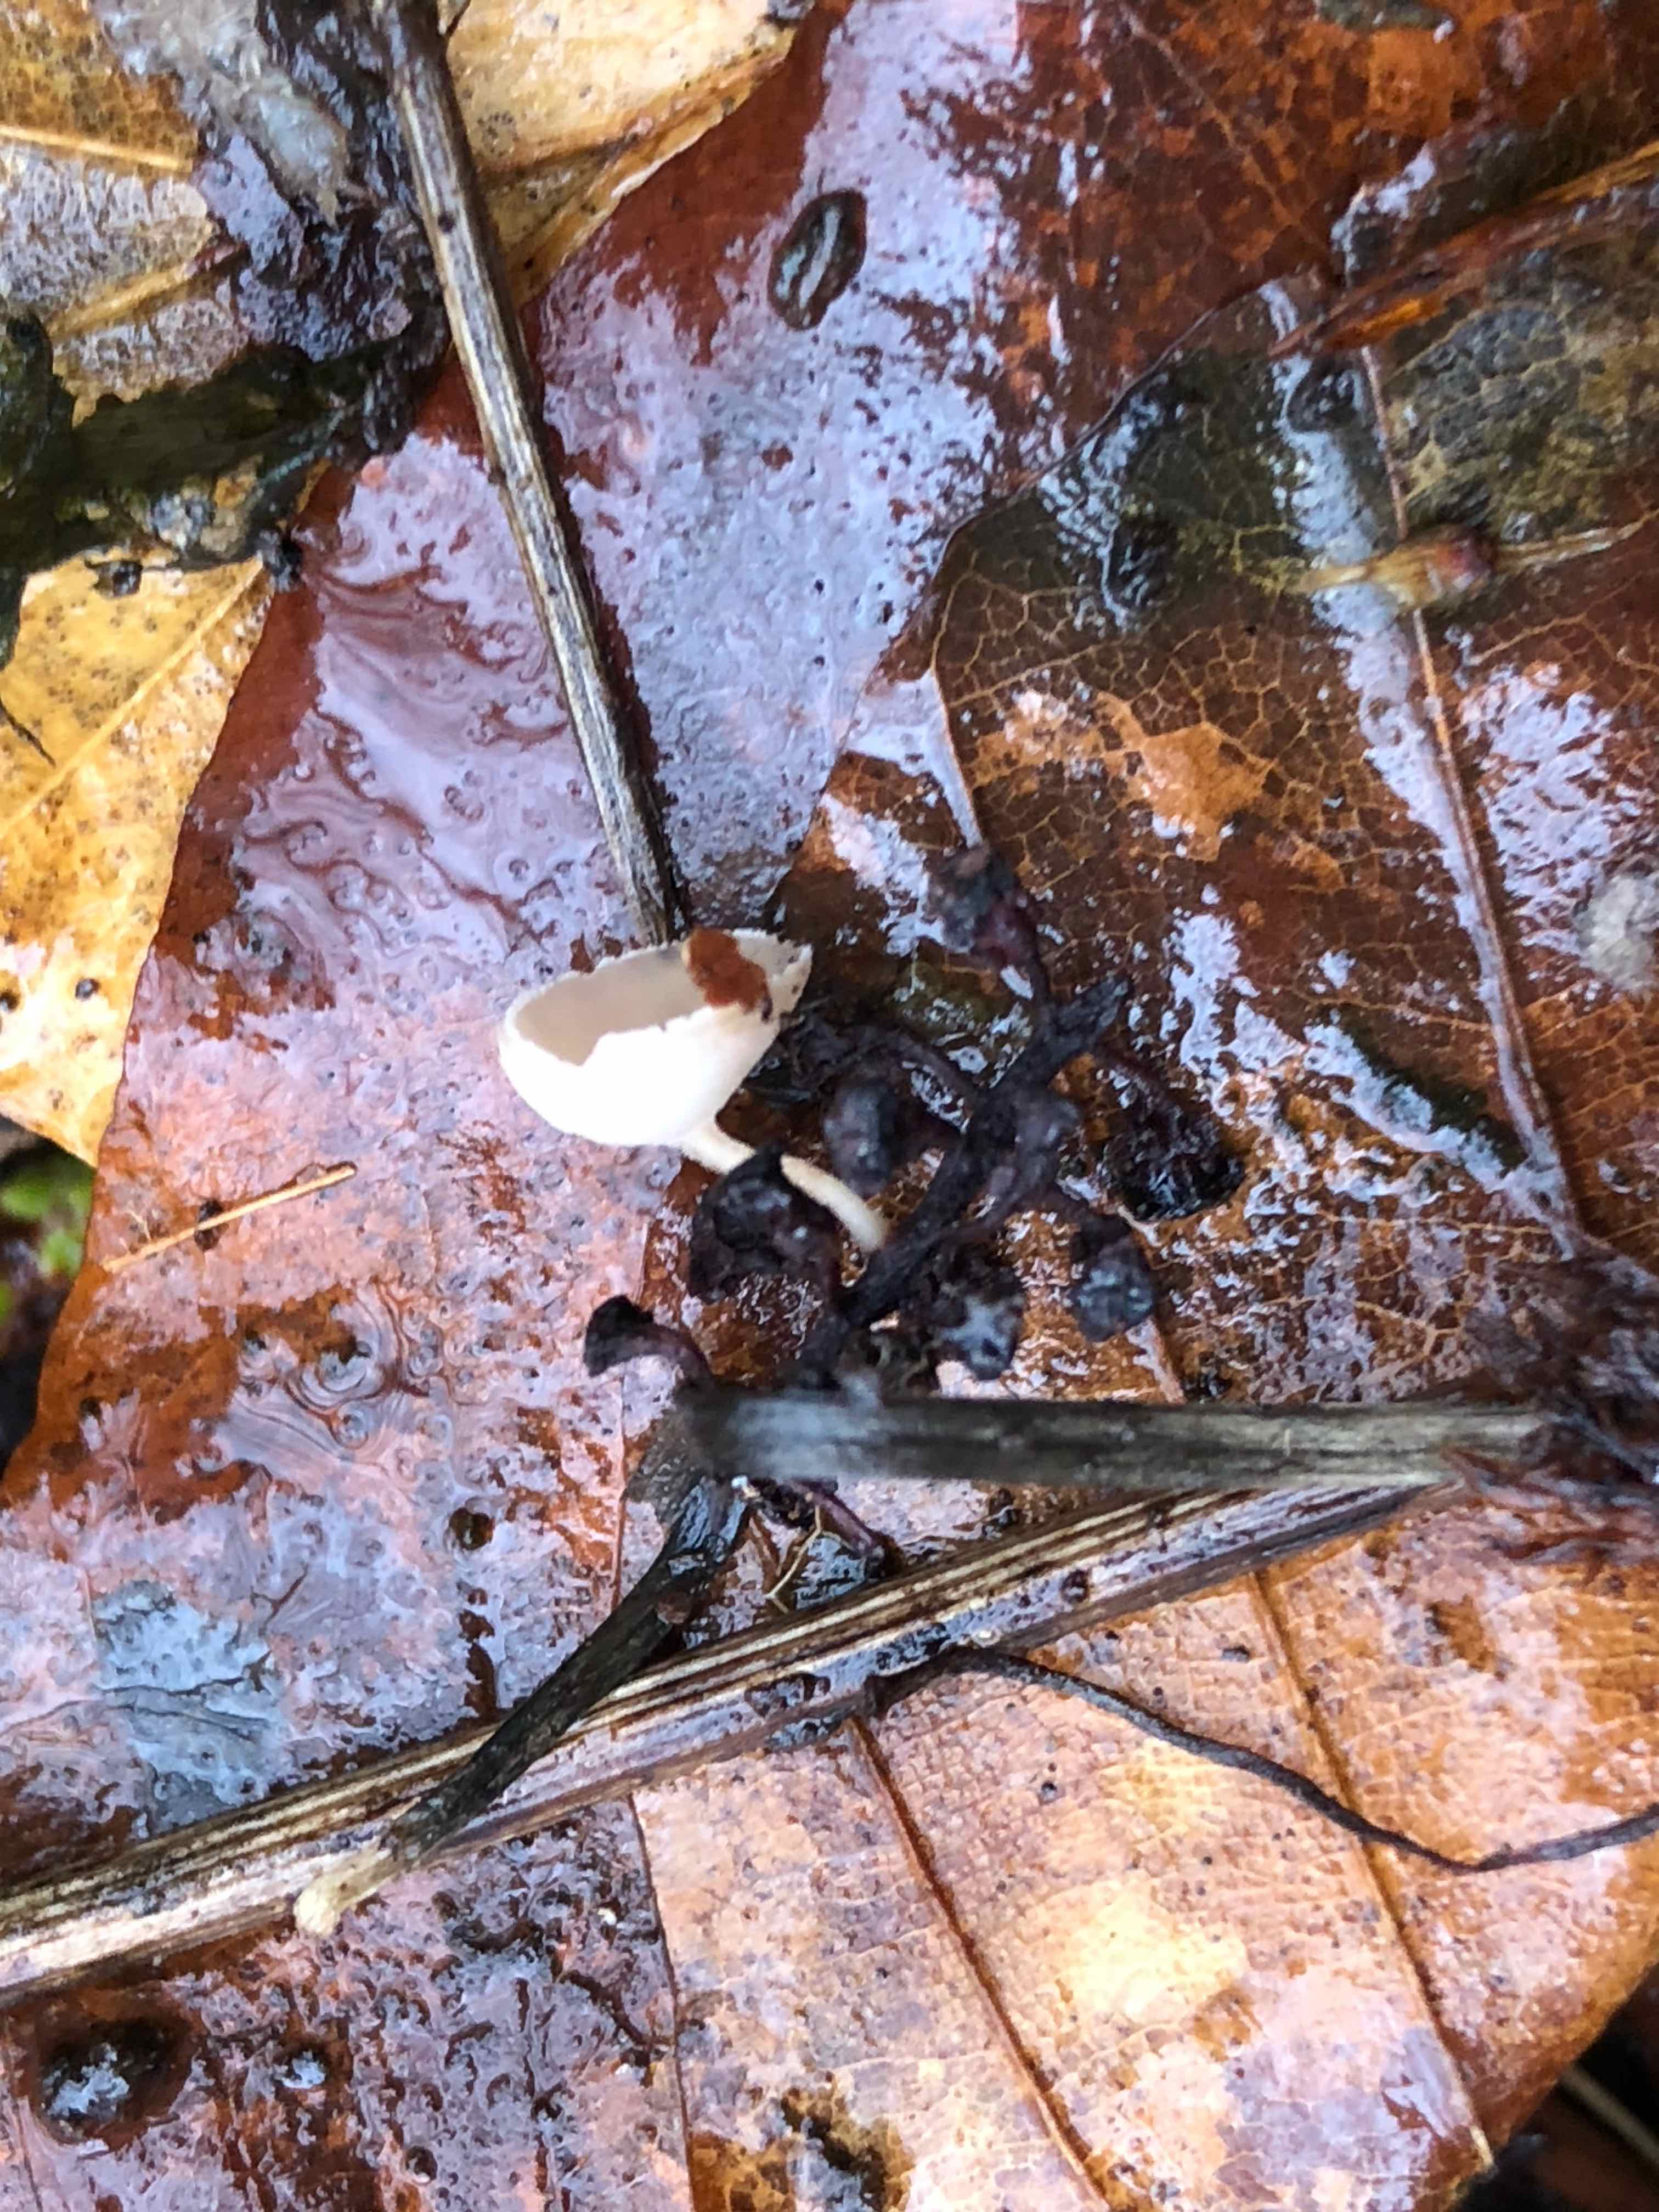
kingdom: Fungi
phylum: Ascomycota
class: Leotiomycetes
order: Helotiales
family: Sclerotiniaceae
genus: Ciboria
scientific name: Ciboria amentacea
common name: ellerakle-knoldskive
